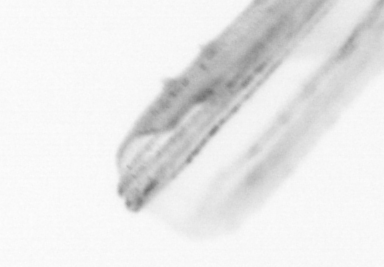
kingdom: Animalia
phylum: Chordata
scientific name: Chordata
